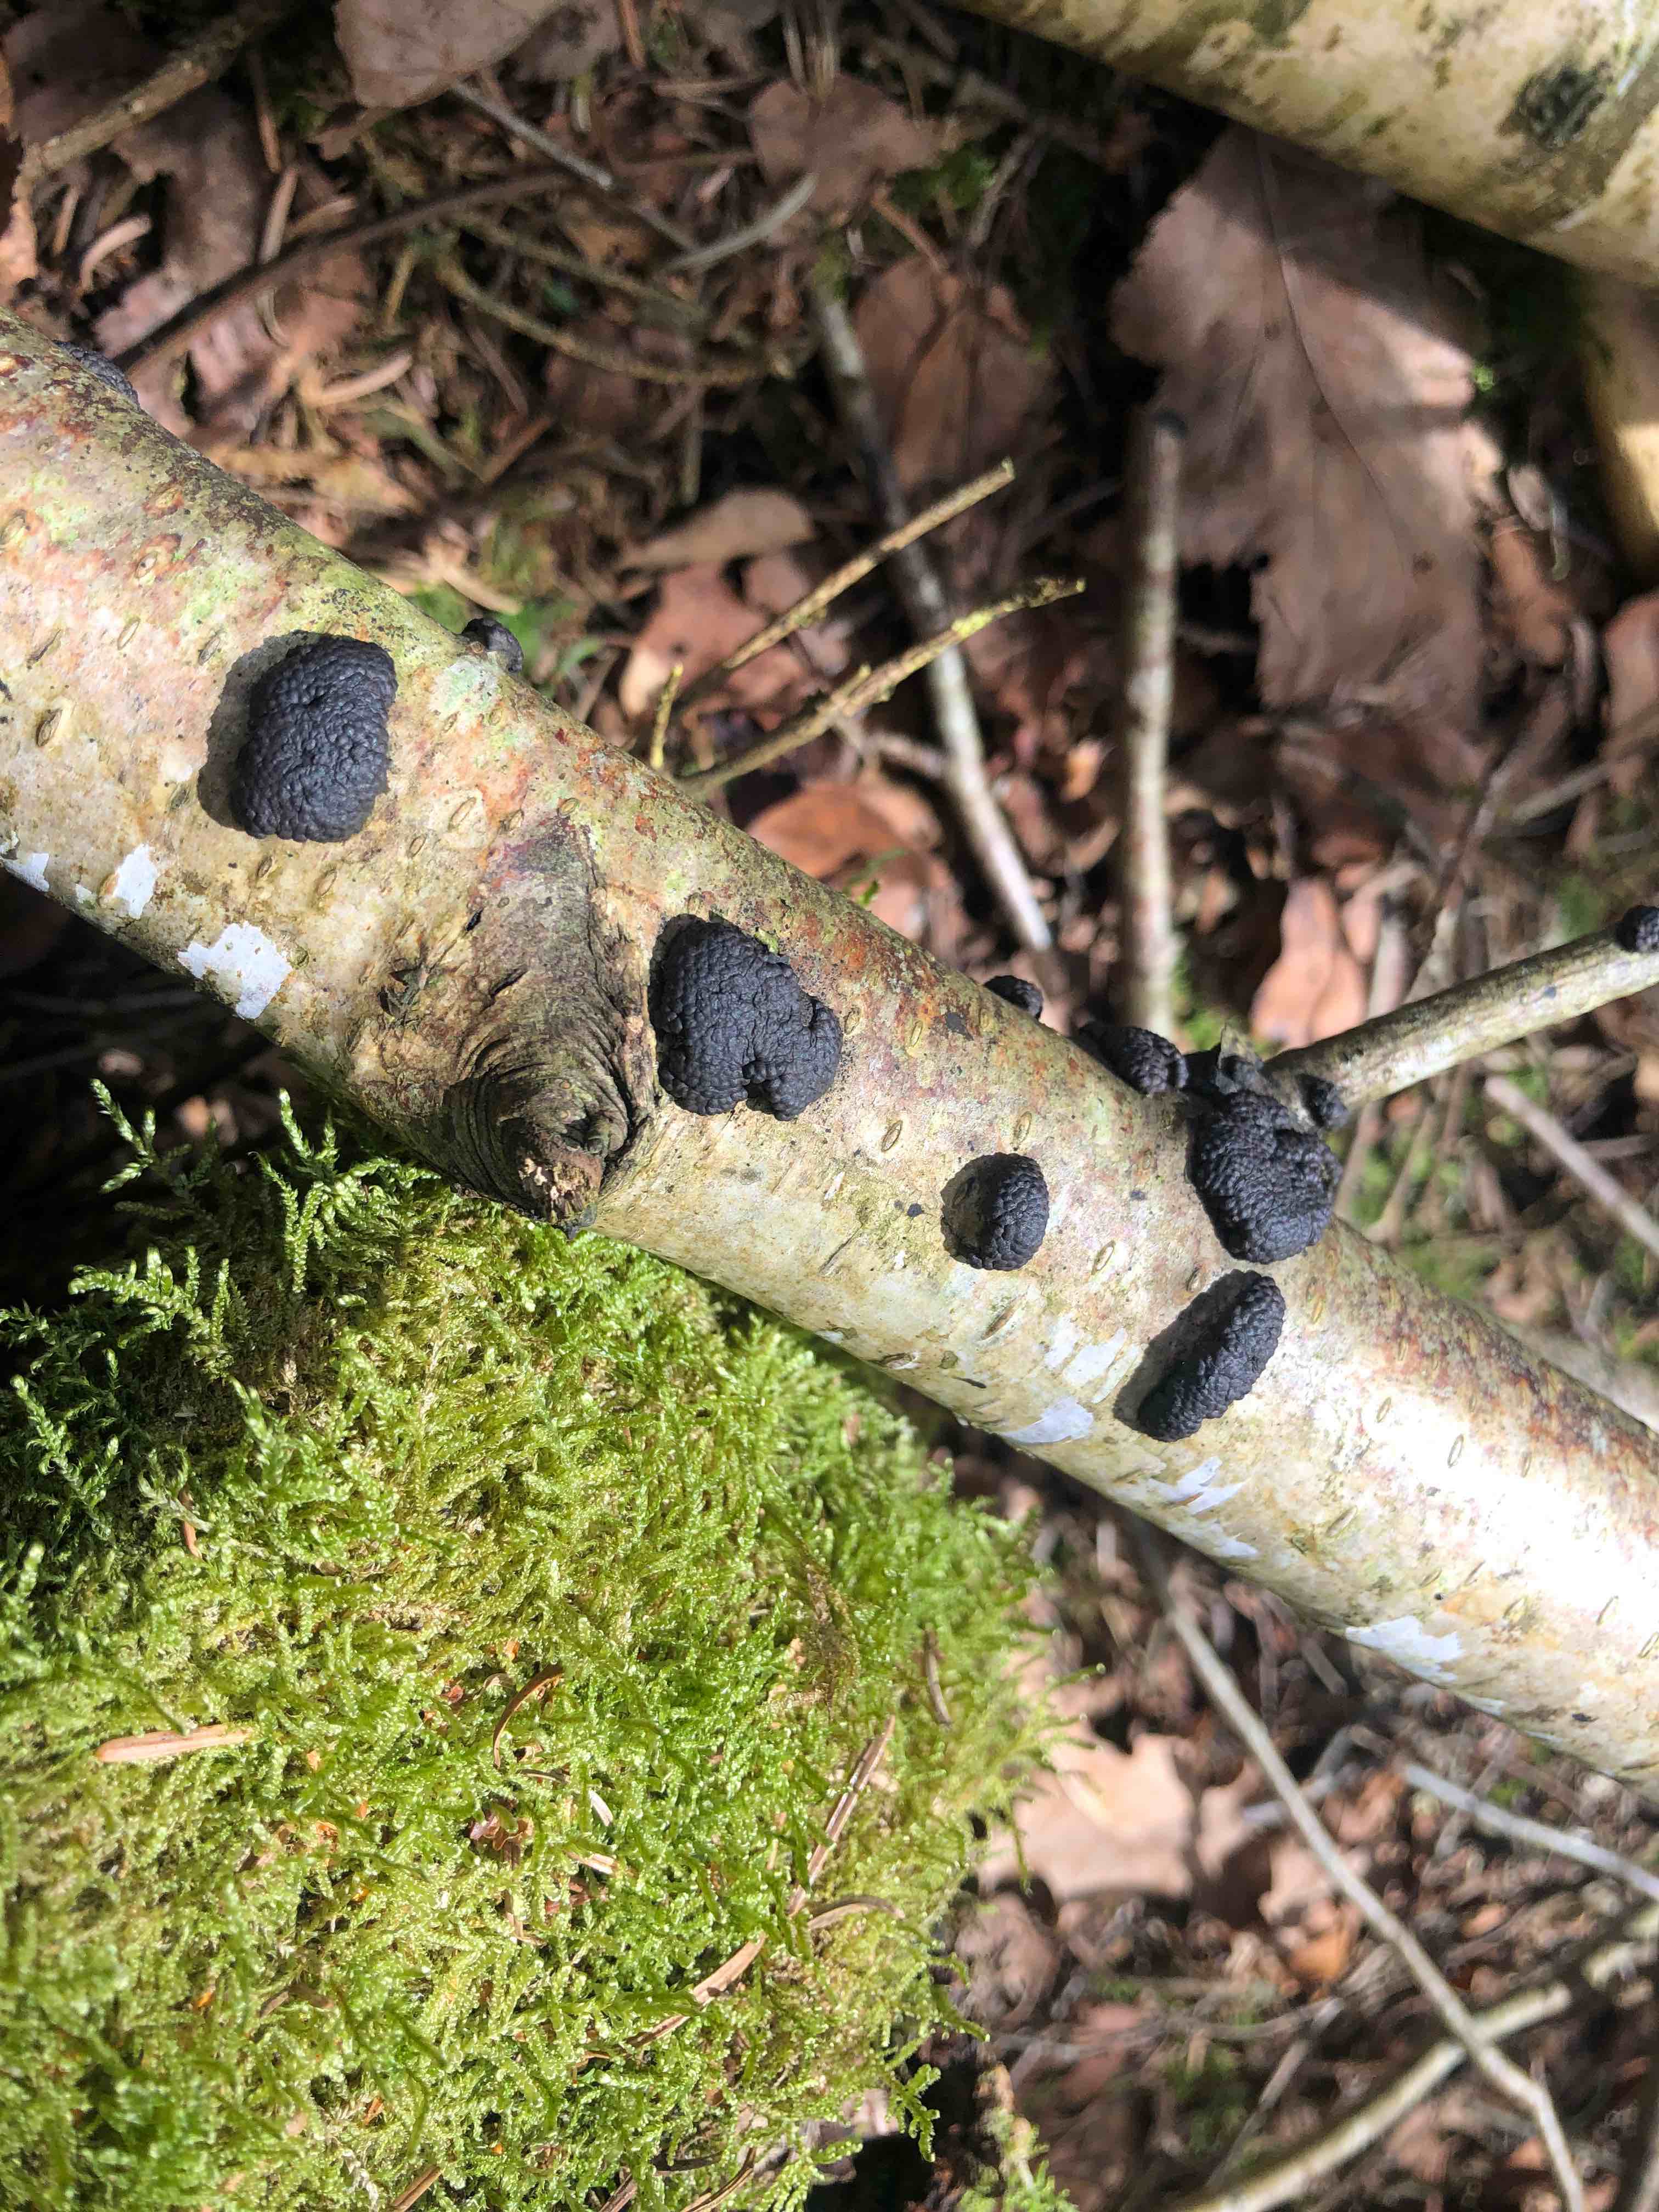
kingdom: Fungi
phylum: Ascomycota
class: Sordariomycetes
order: Xylariales
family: Hypoxylaceae
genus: Jackrogersella
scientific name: Jackrogersella multiformis
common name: foranderlig kulbær
